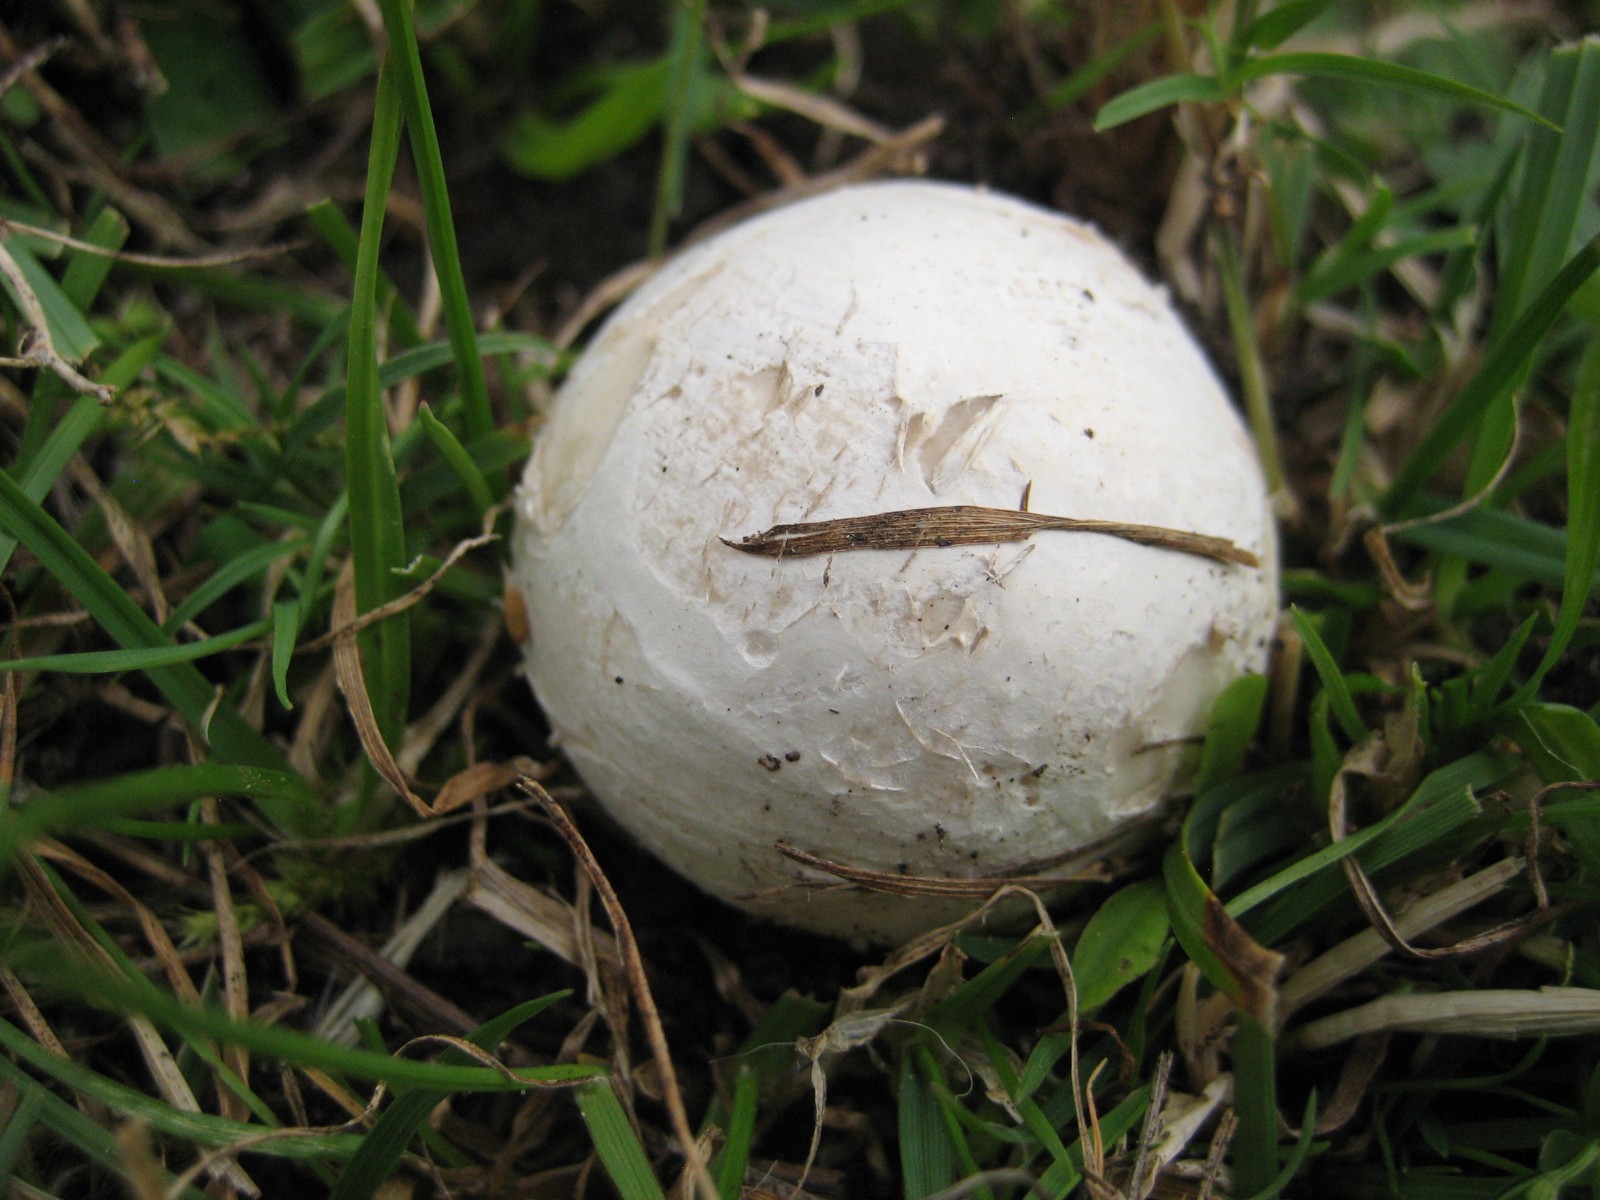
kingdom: Fungi
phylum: Basidiomycota
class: Agaricomycetes
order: Agaricales
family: Lycoperdaceae
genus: Bovista
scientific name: Bovista
